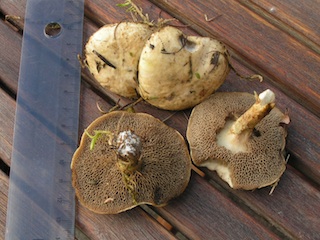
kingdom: Fungi
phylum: Basidiomycota
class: Agaricomycetes
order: Boletales
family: Suillaceae
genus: Suillus
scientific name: Suillus viscidus
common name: olivengrå slimrørhat
